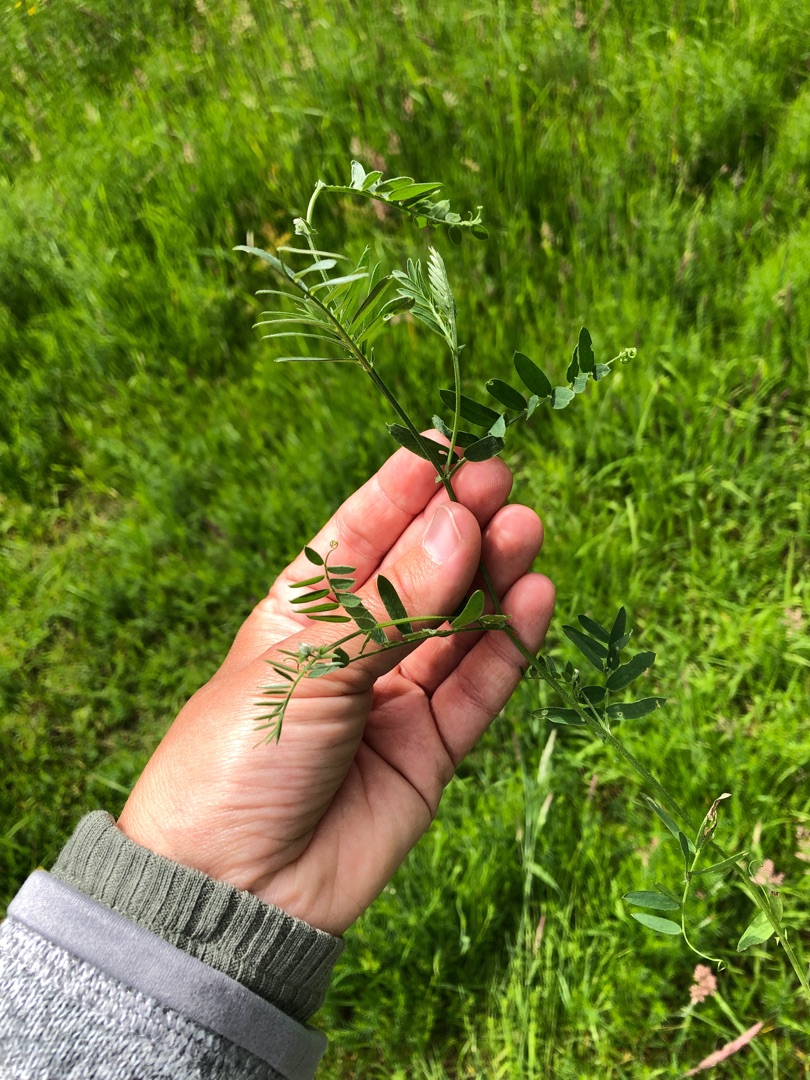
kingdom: Plantae
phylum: Tracheophyta
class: Magnoliopsida
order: Fabales
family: Fabaceae
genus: Vicia
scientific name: Vicia cracca
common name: Muse-vikke
